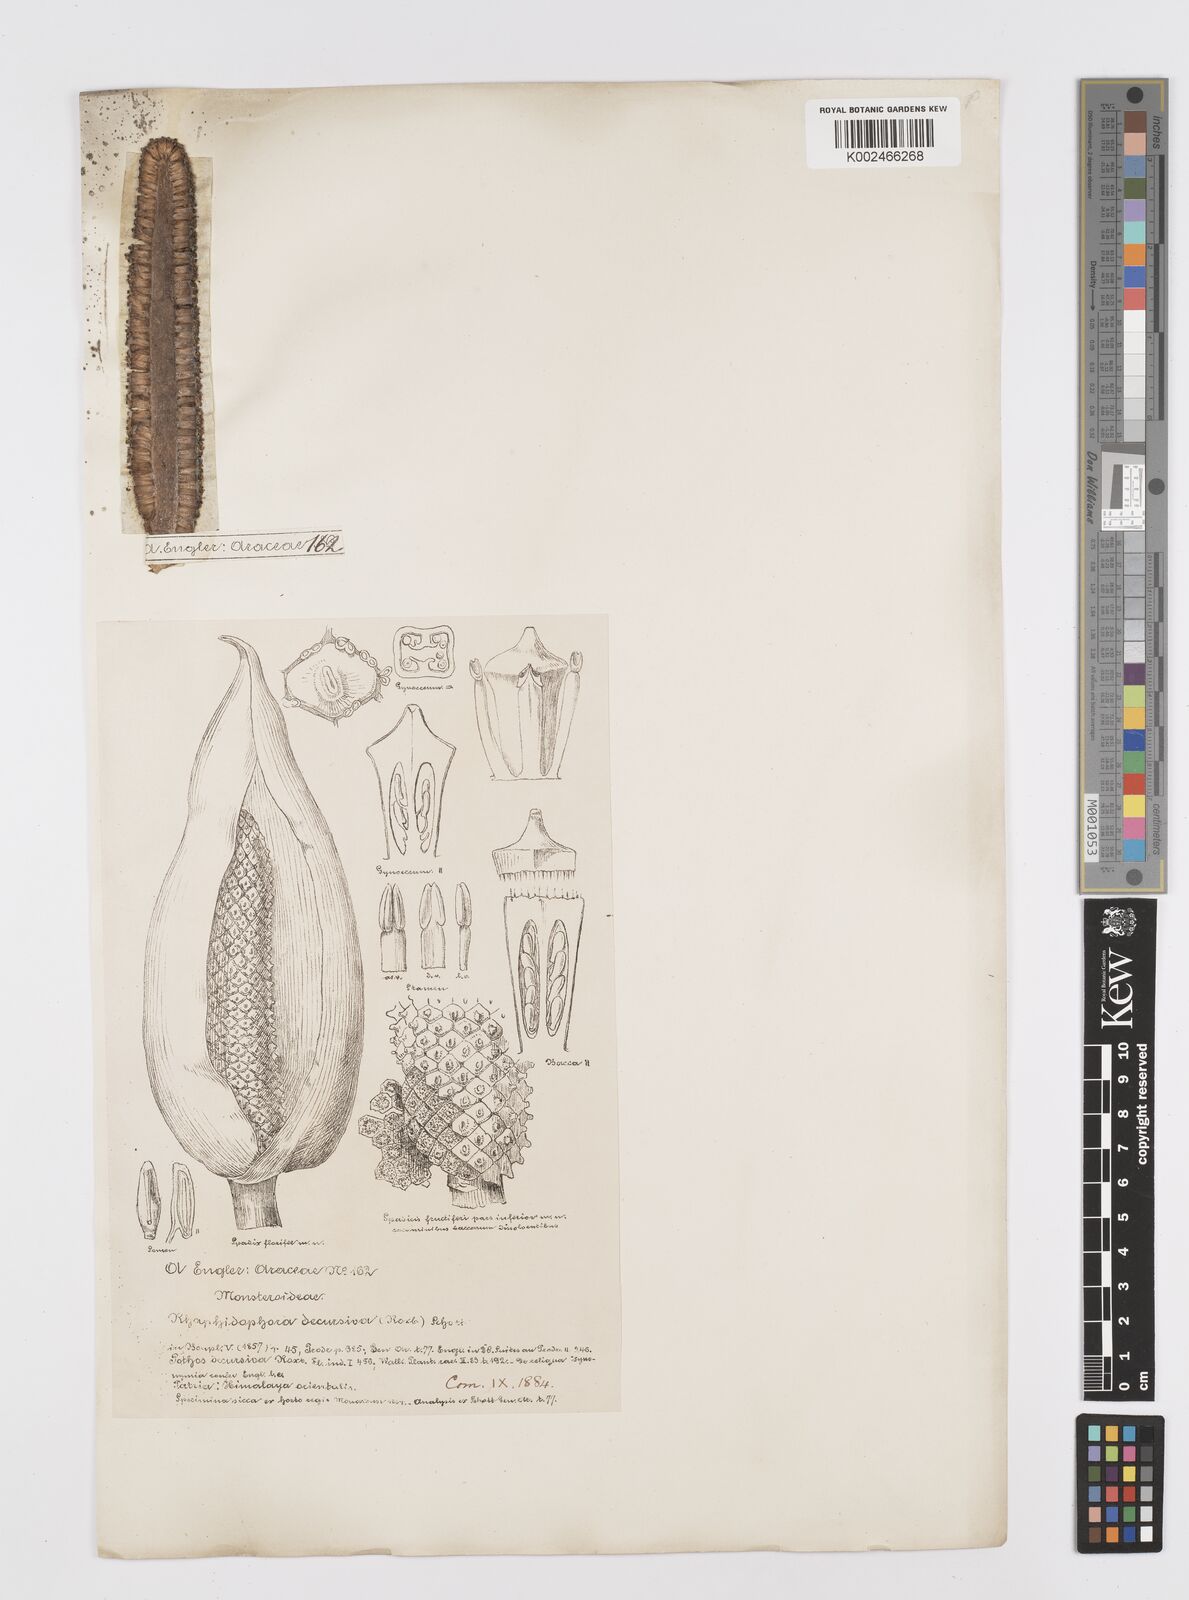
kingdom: Plantae
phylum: Tracheophyta
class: Liliopsida
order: Alismatales
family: Araceae
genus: Rhaphidophora
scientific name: Rhaphidophora decursiva
